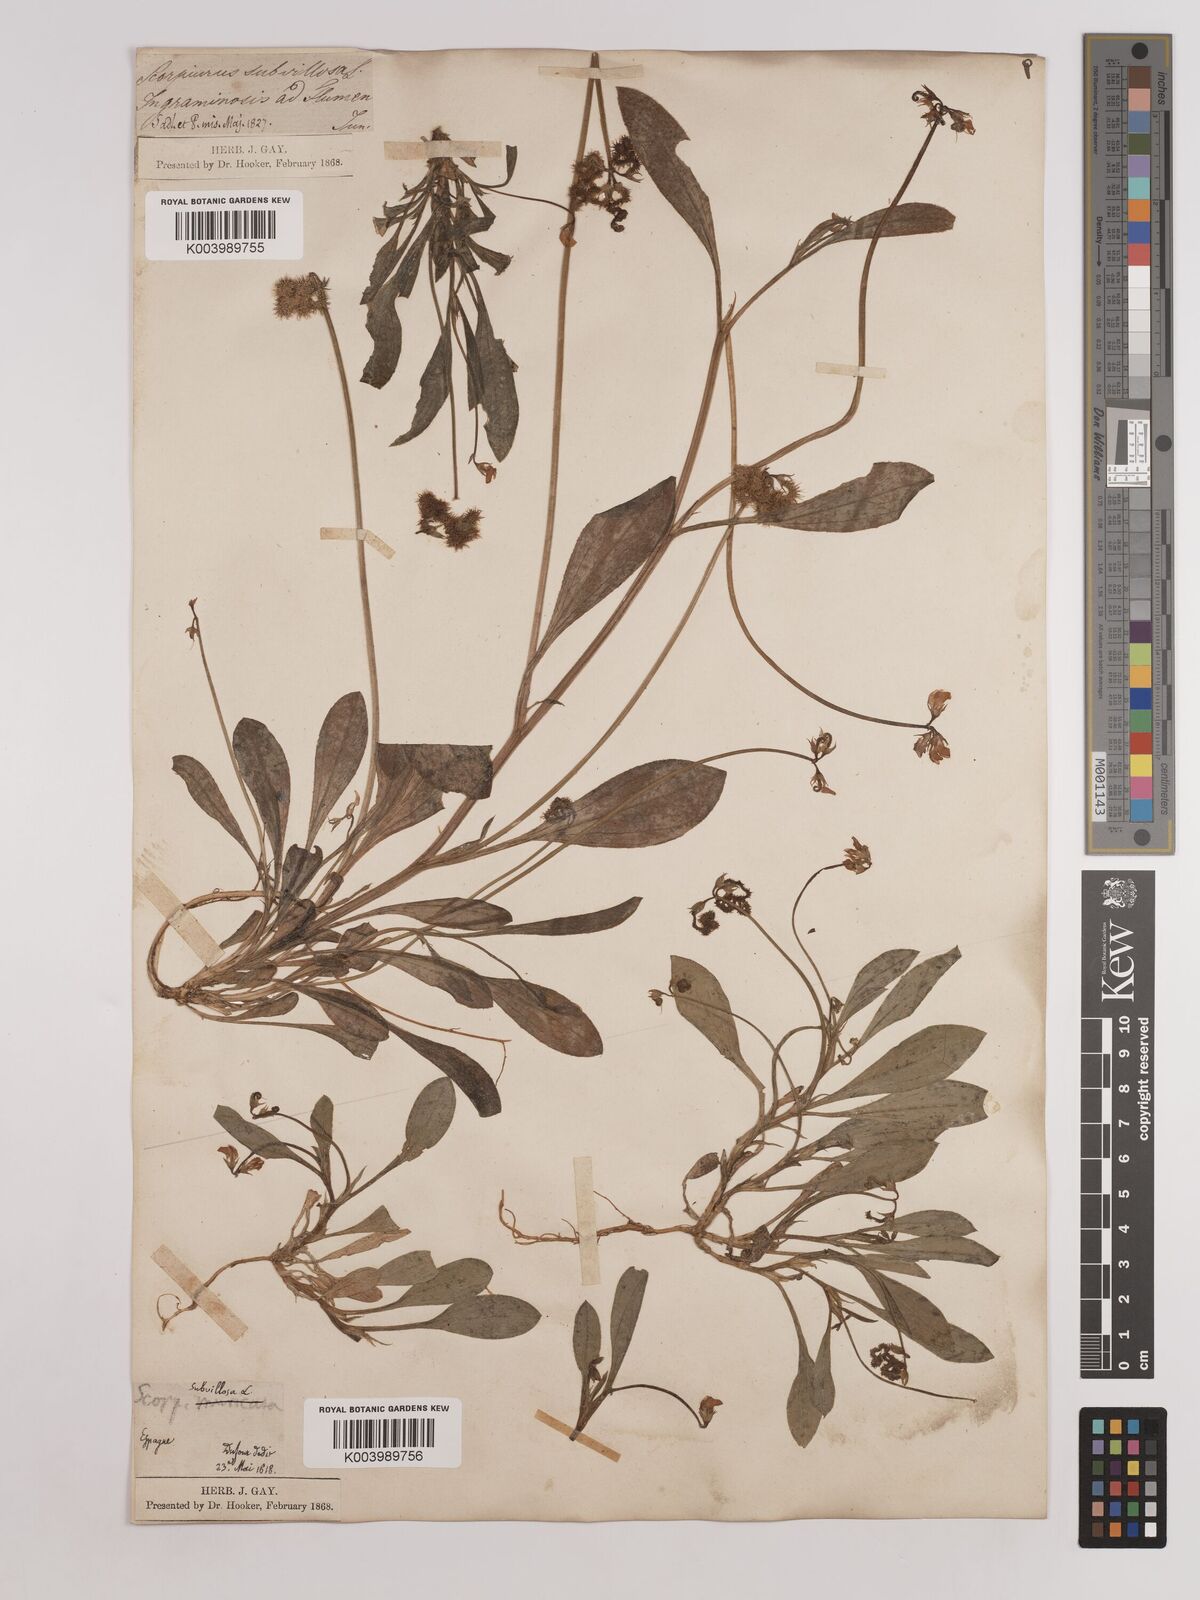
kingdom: Plantae
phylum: Tracheophyta
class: Magnoliopsida
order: Fabales
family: Fabaceae
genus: Scorpiurus
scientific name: Scorpiurus muricatus
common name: Caterpillar-plant
